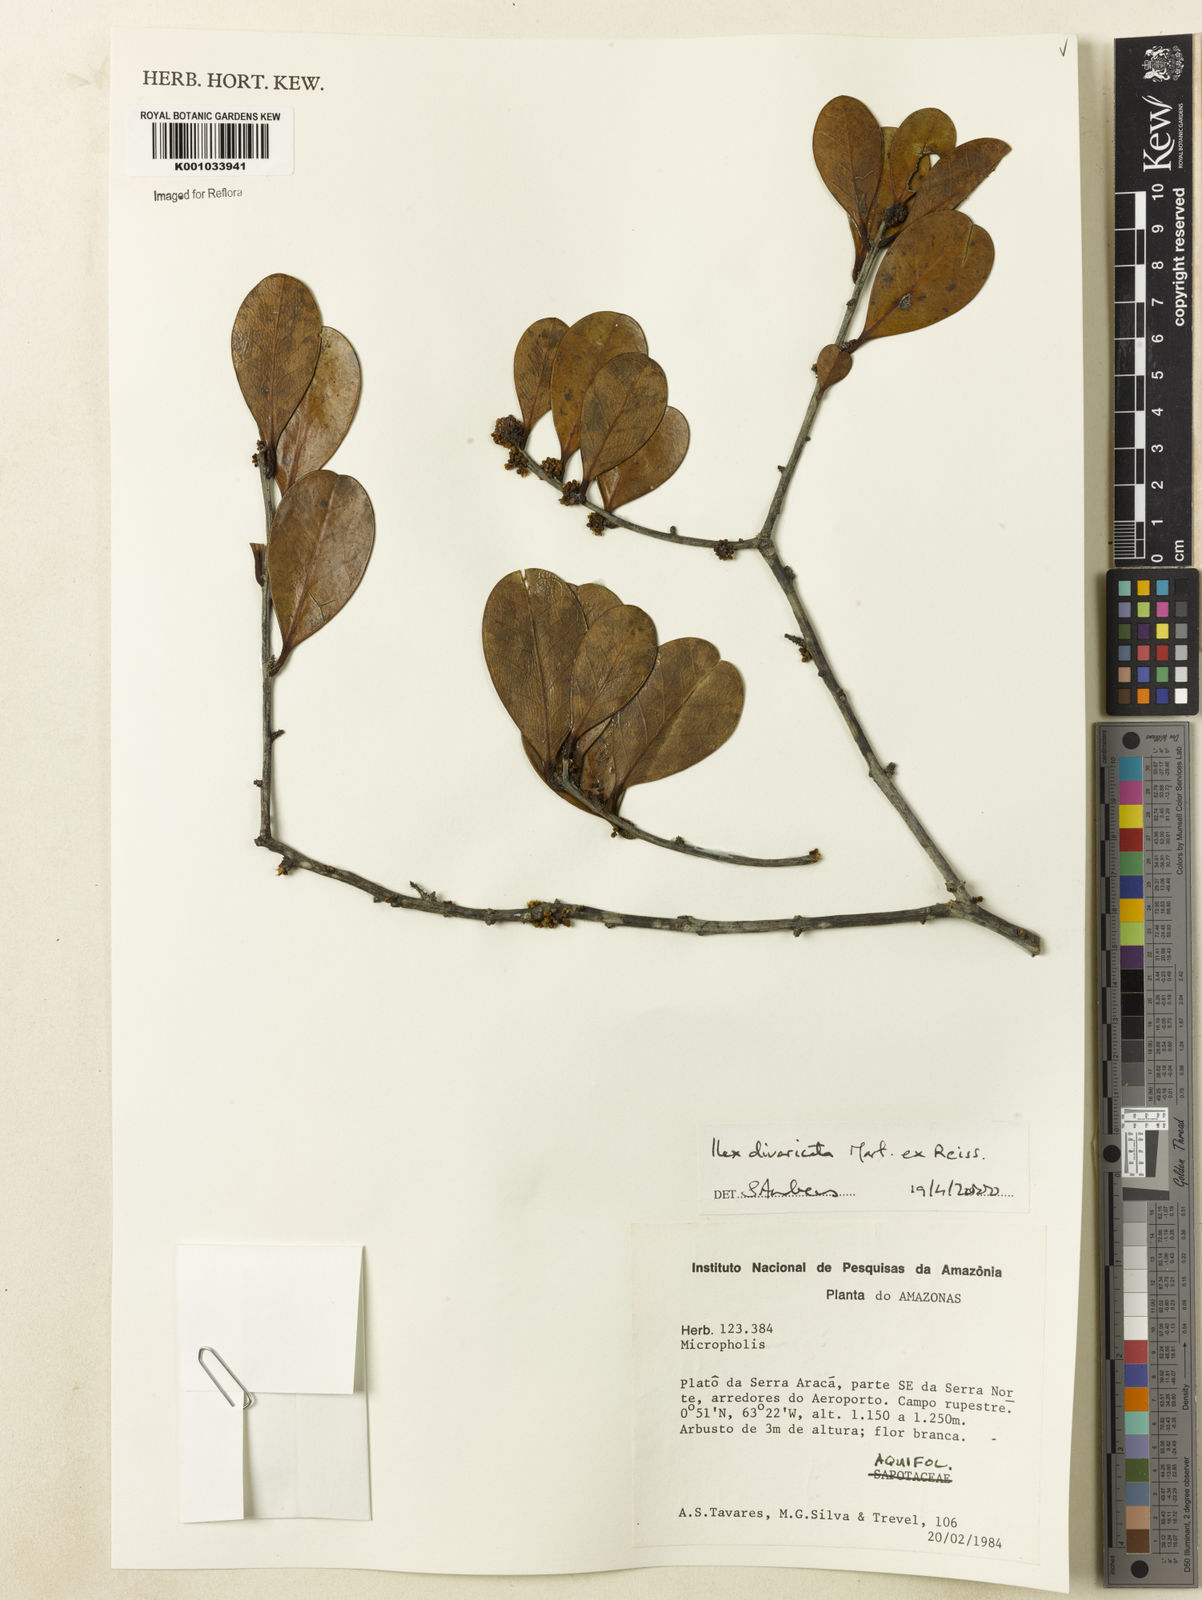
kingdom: Plantae
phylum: Tracheophyta
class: Magnoliopsida
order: Aquifoliales
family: Aquifoliaceae
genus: Ilex
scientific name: Ilex divaricata
